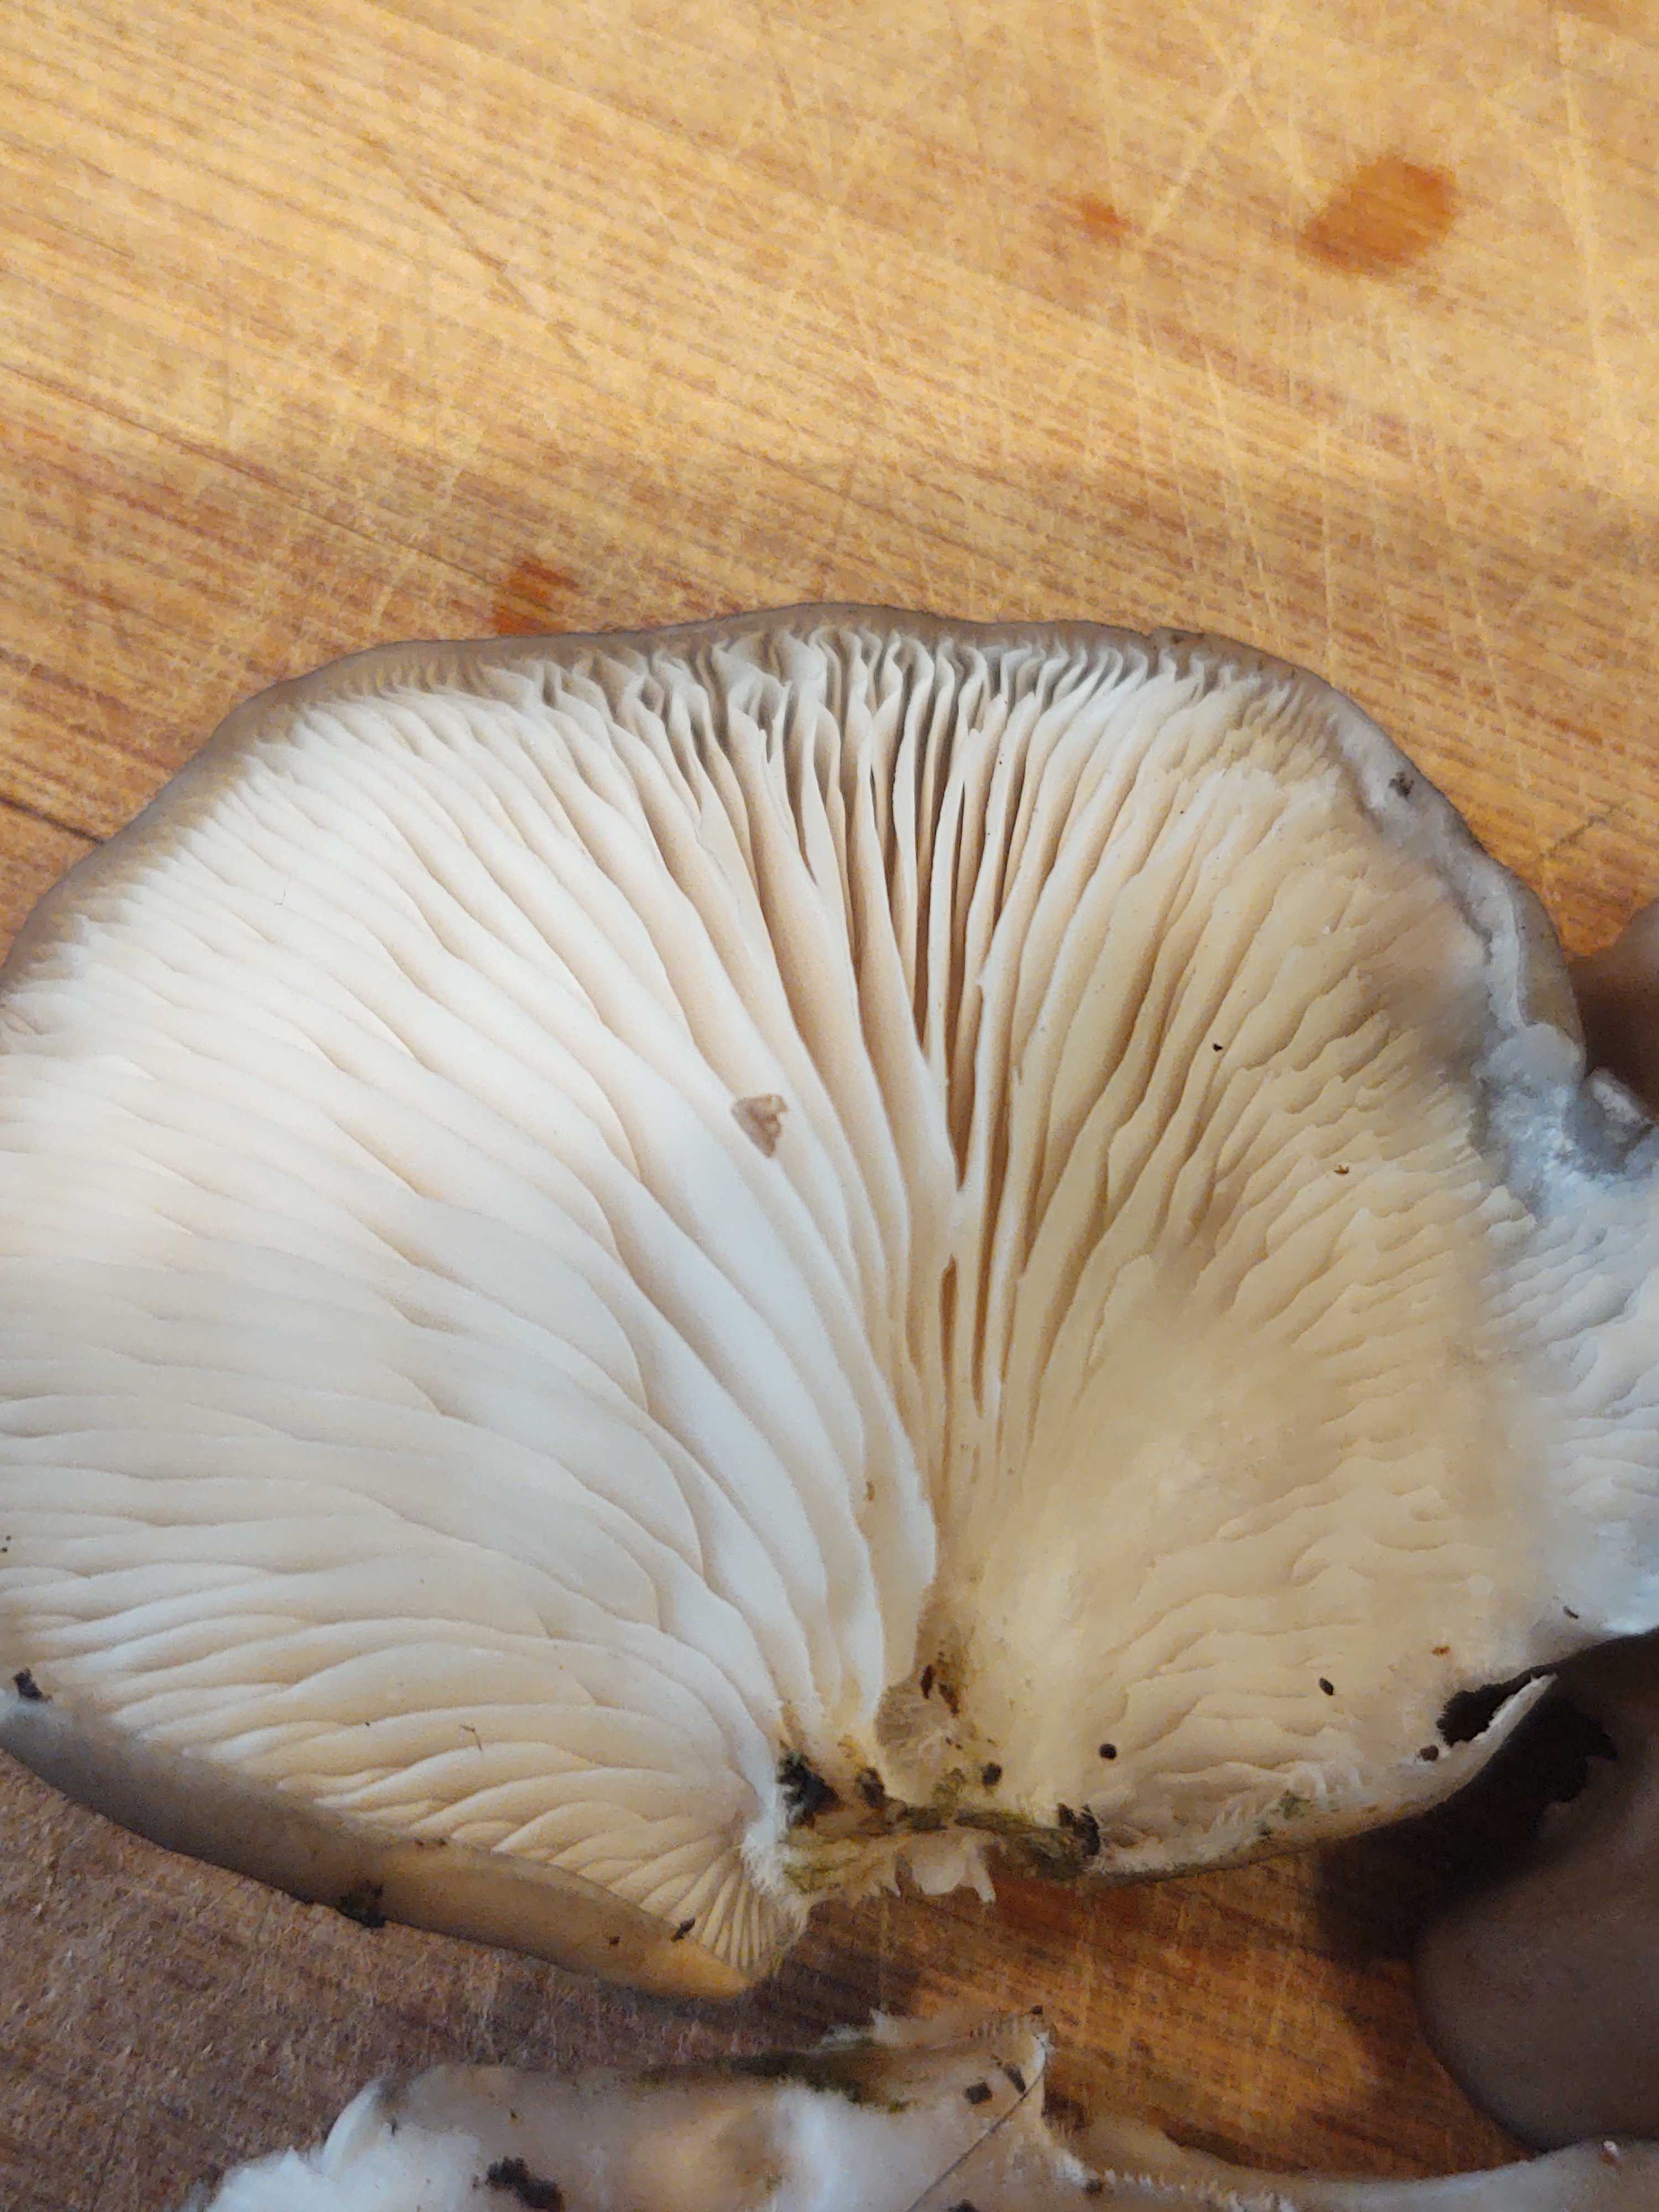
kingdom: Fungi
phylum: Basidiomycota
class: Agaricomycetes
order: Agaricales
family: Pleurotaceae
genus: Pleurotus
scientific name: Pleurotus ostreatus
